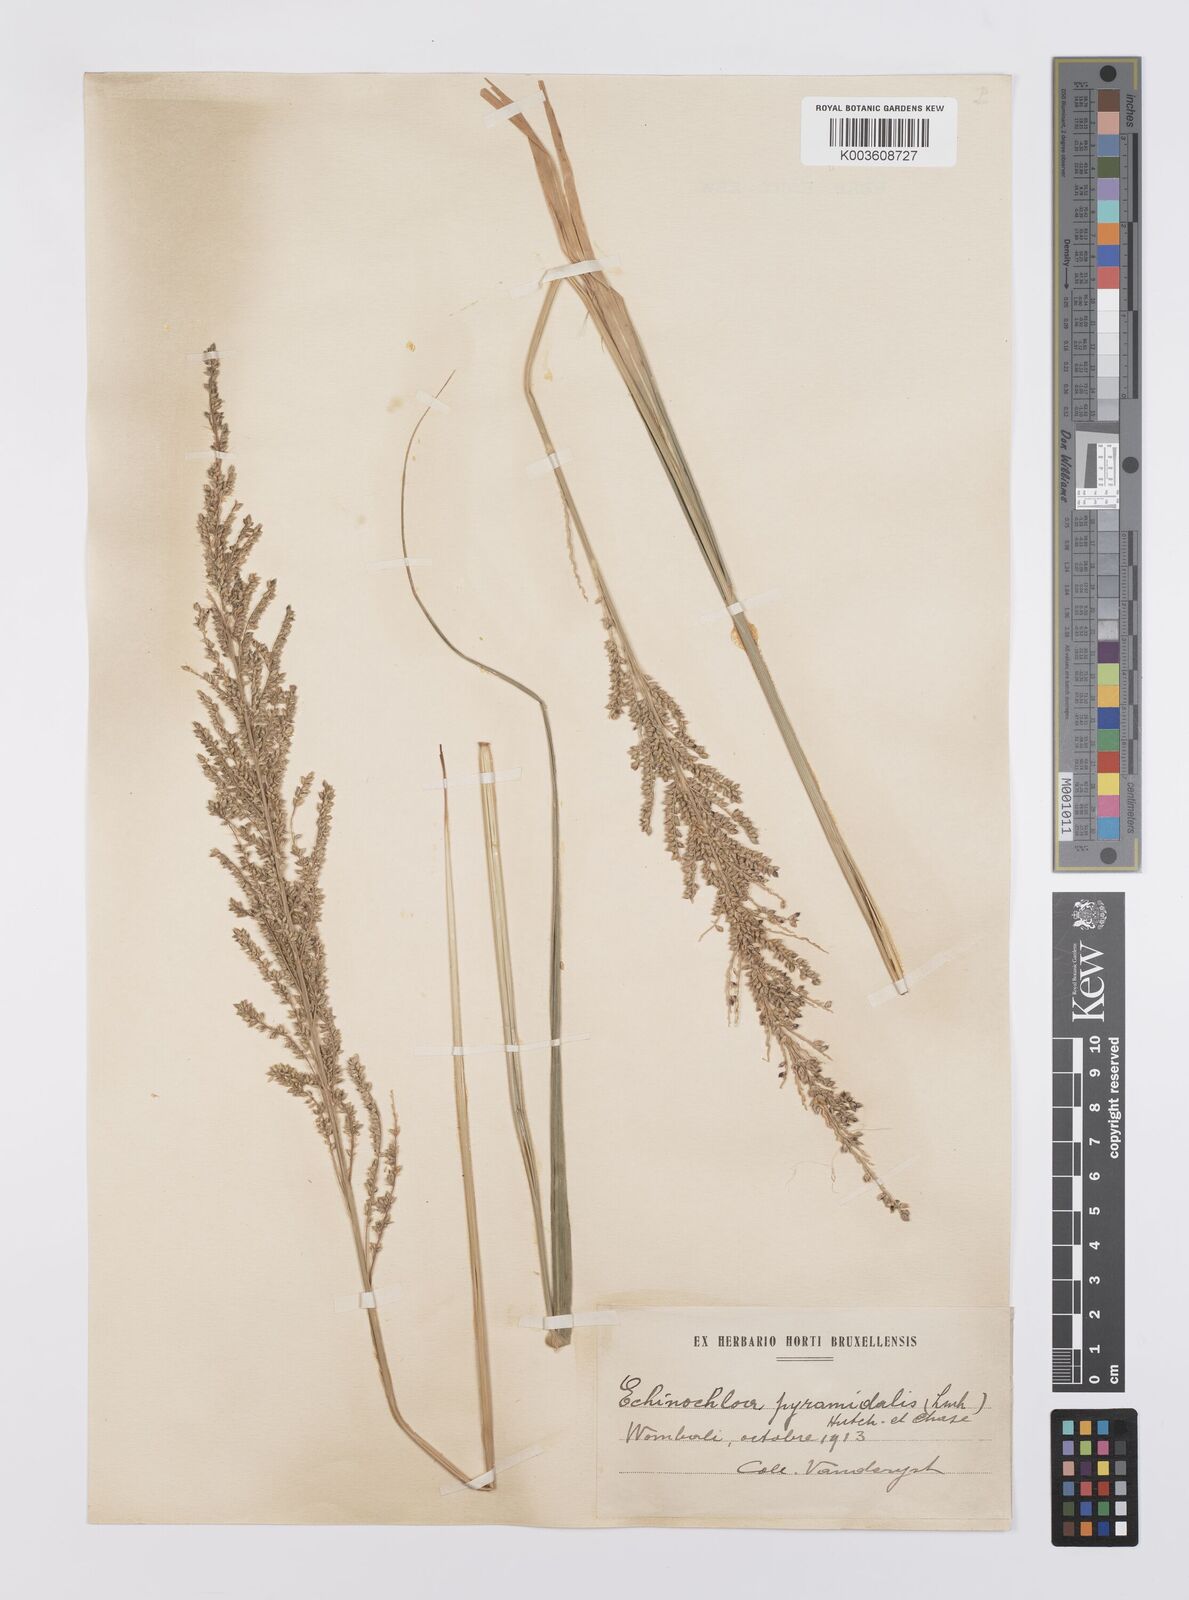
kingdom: Plantae
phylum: Tracheophyta
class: Liliopsida
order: Poales
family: Poaceae
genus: Echinochloa
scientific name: Echinochloa pyramidalis
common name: Antelope grass
